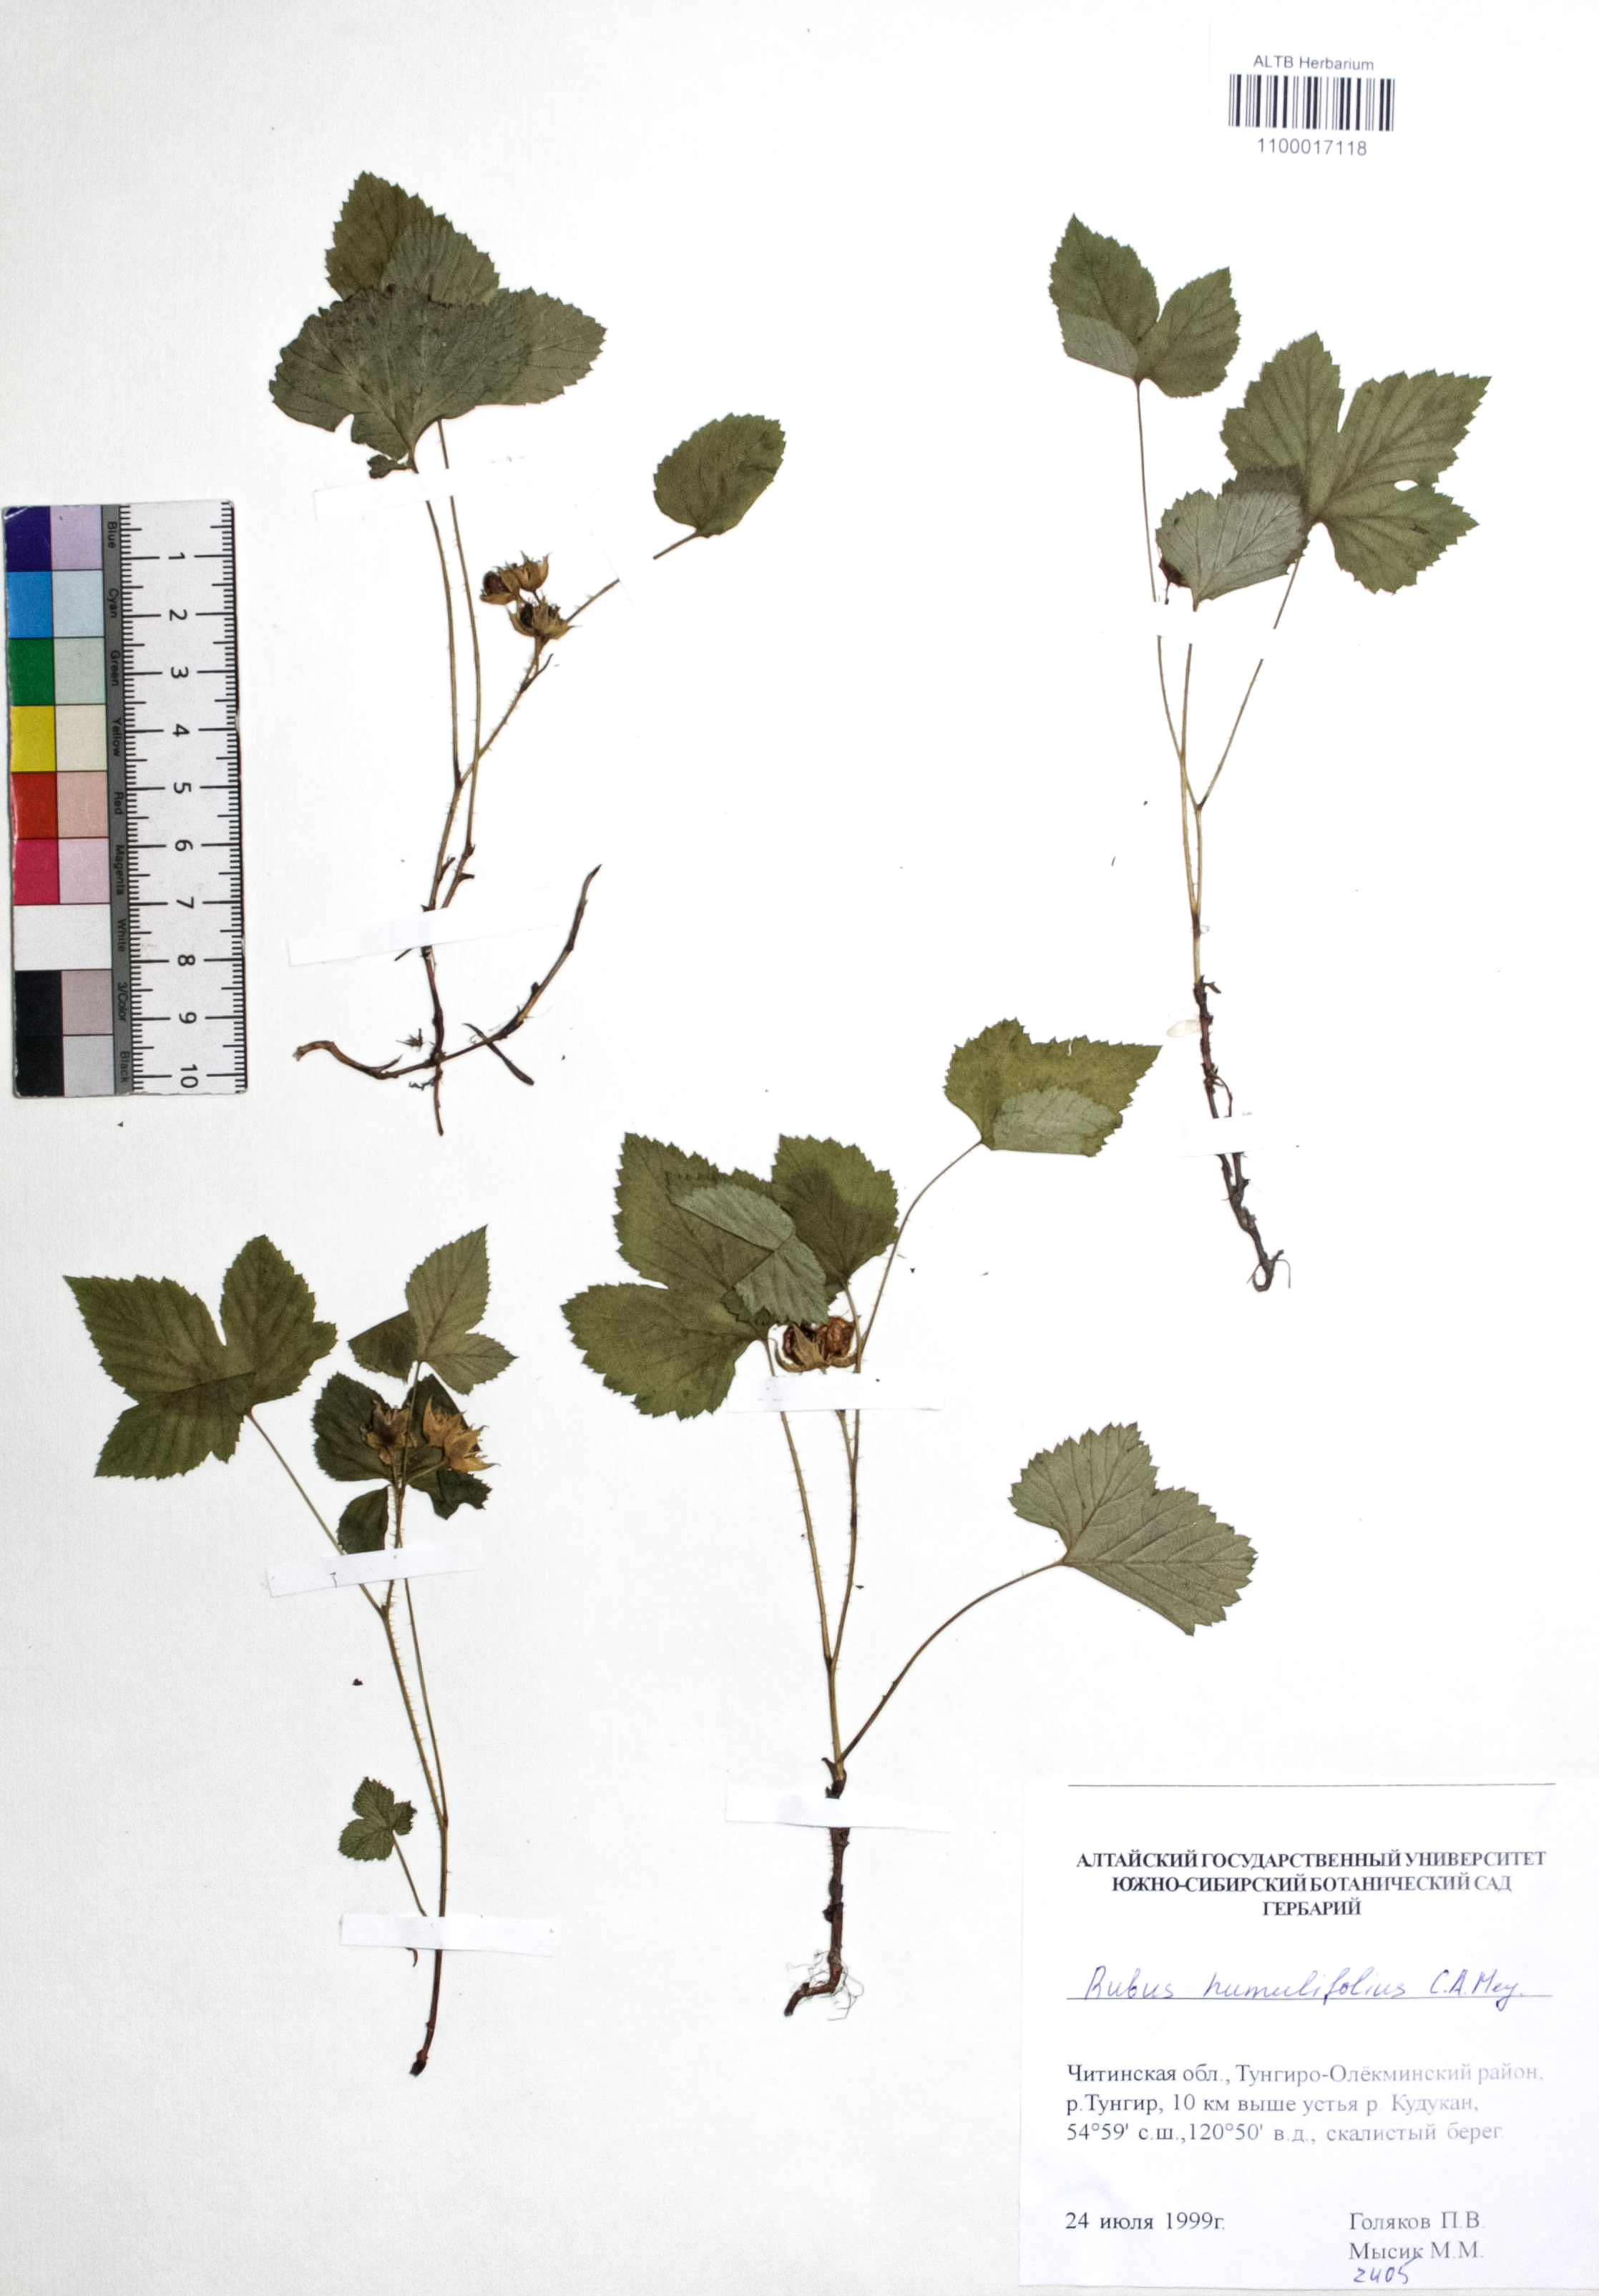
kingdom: Plantae
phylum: Tracheophyta
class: Magnoliopsida
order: Rosales
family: Rosaceae
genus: Rubus
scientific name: Rubus humulifolius
